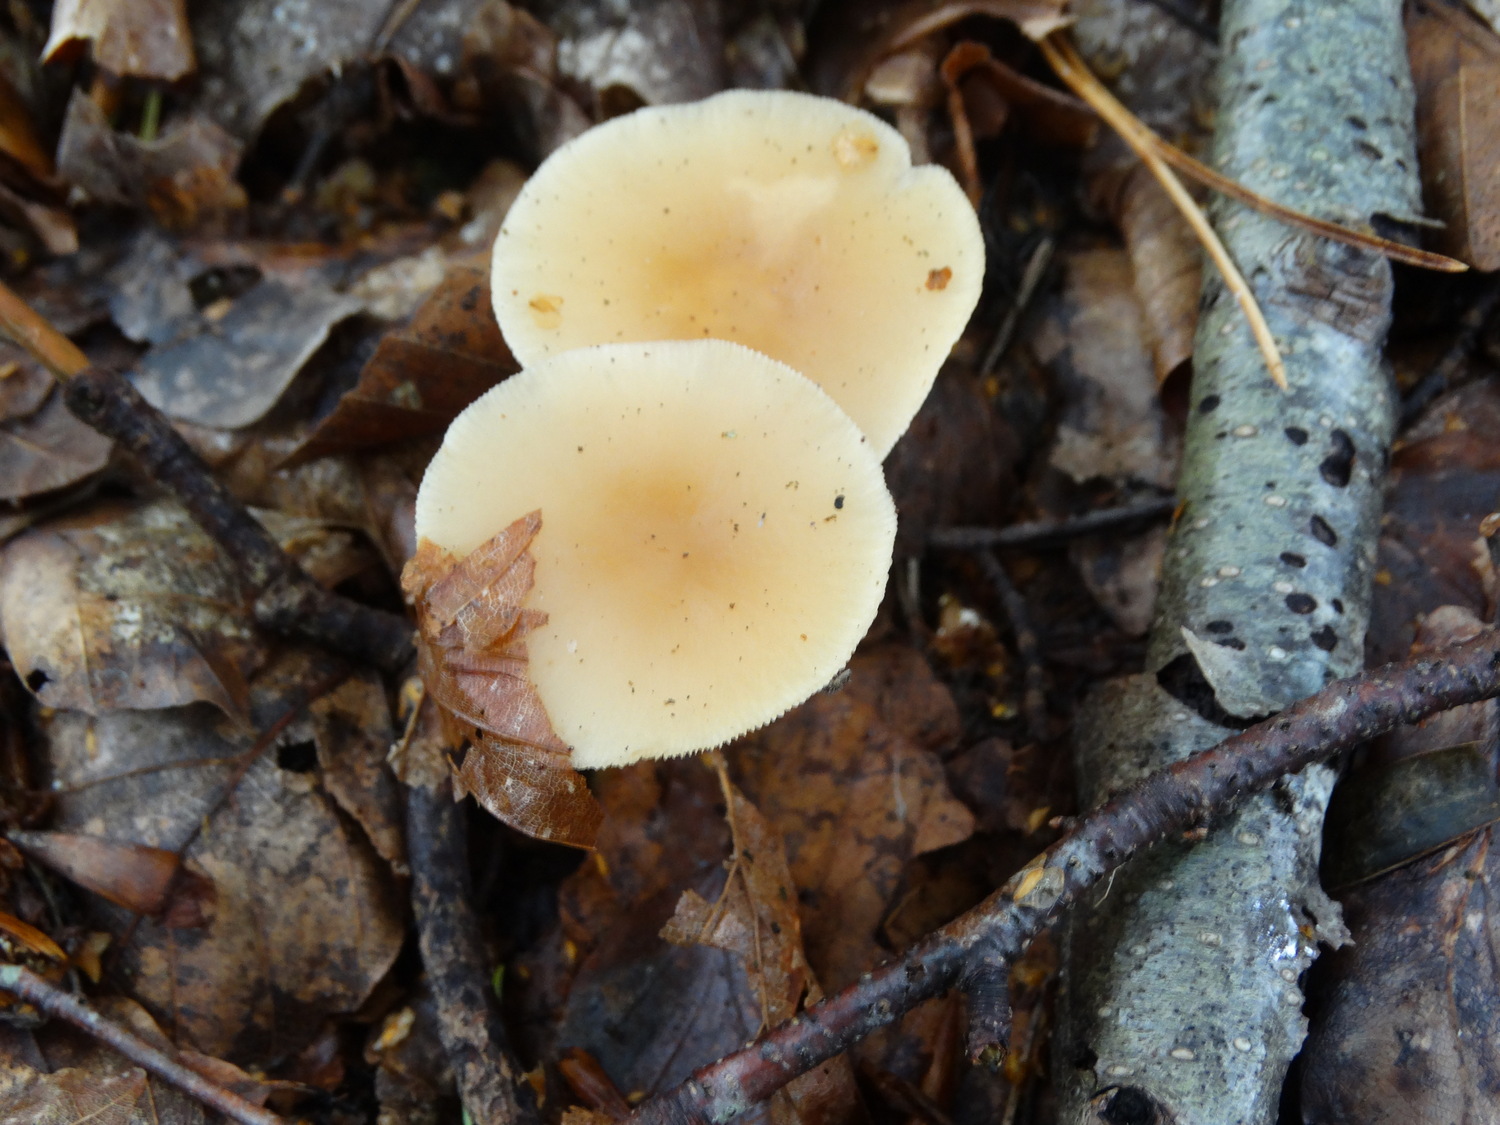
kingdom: Fungi
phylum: Basidiomycota
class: Agaricomycetes
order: Agaricales
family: Omphalotaceae
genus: Gymnopus
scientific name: Gymnopus dryophilus
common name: løv-fladhat
